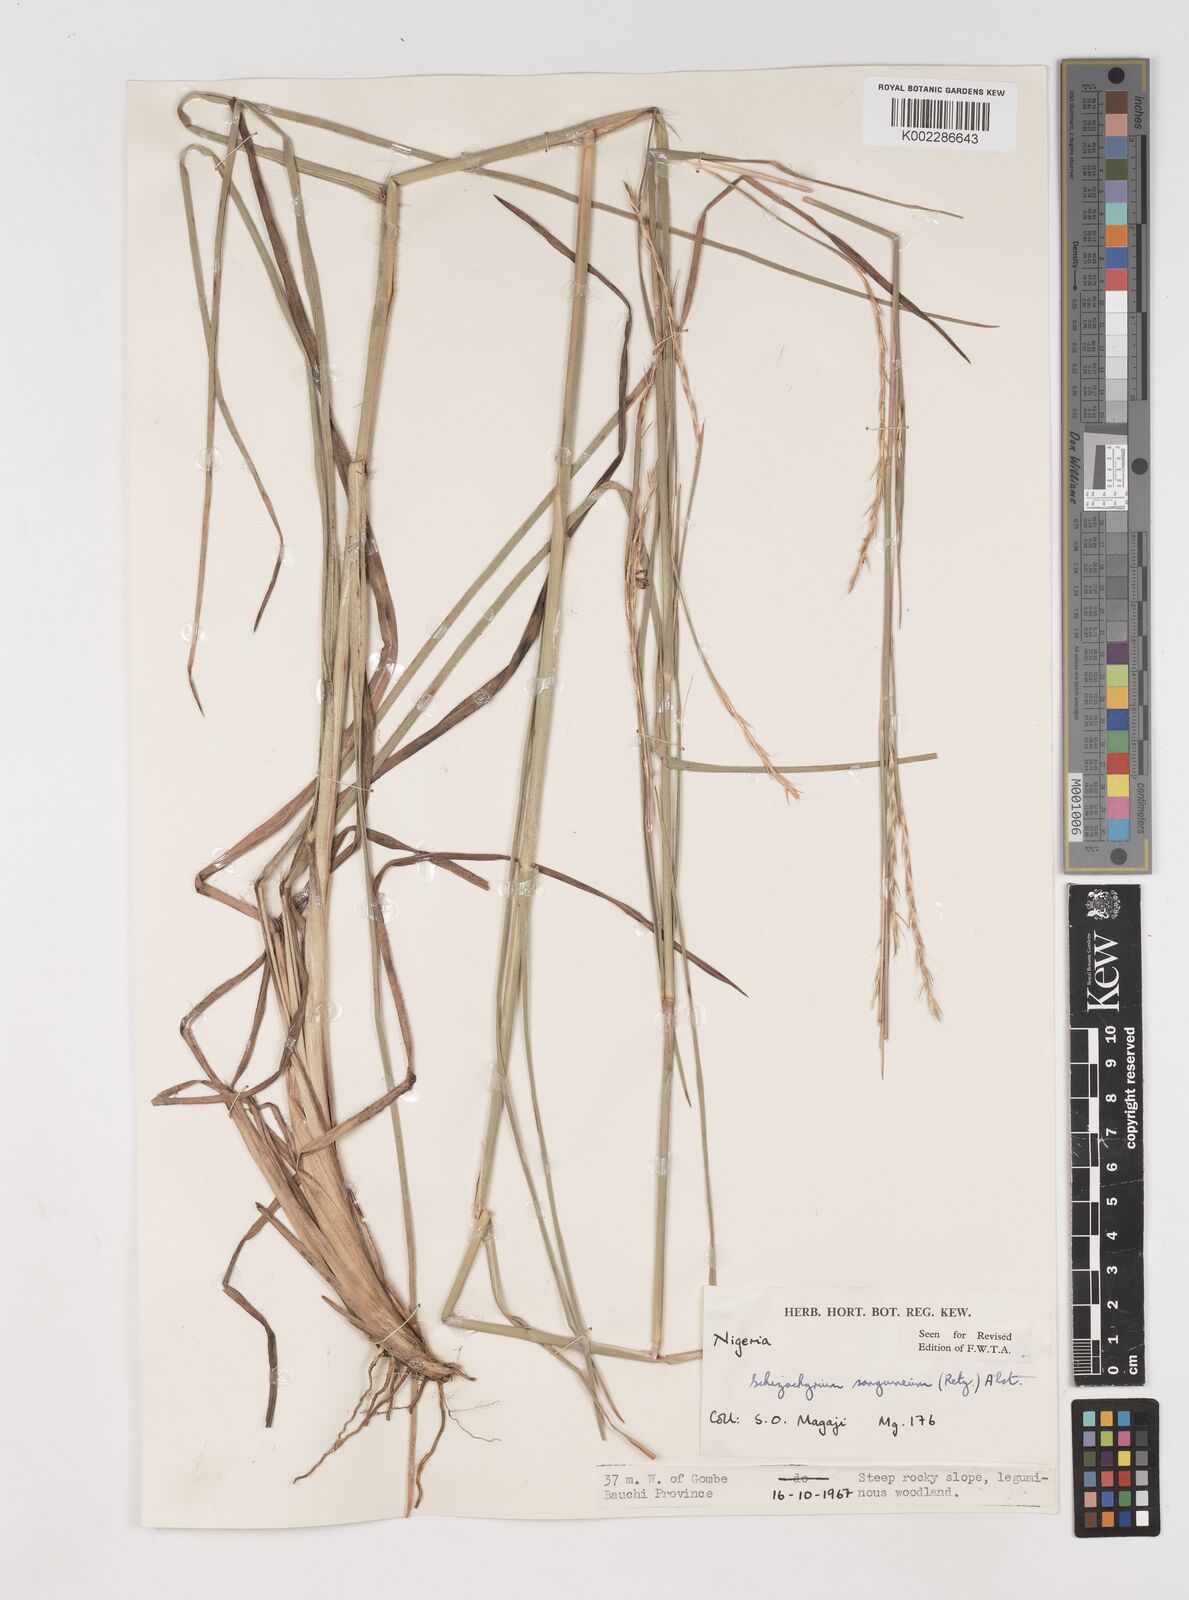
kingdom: Plantae
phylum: Tracheophyta
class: Liliopsida
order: Poales
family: Poaceae
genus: Schizachyrium
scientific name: Schizachyrium sanguineum
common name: Crimson bluestem
